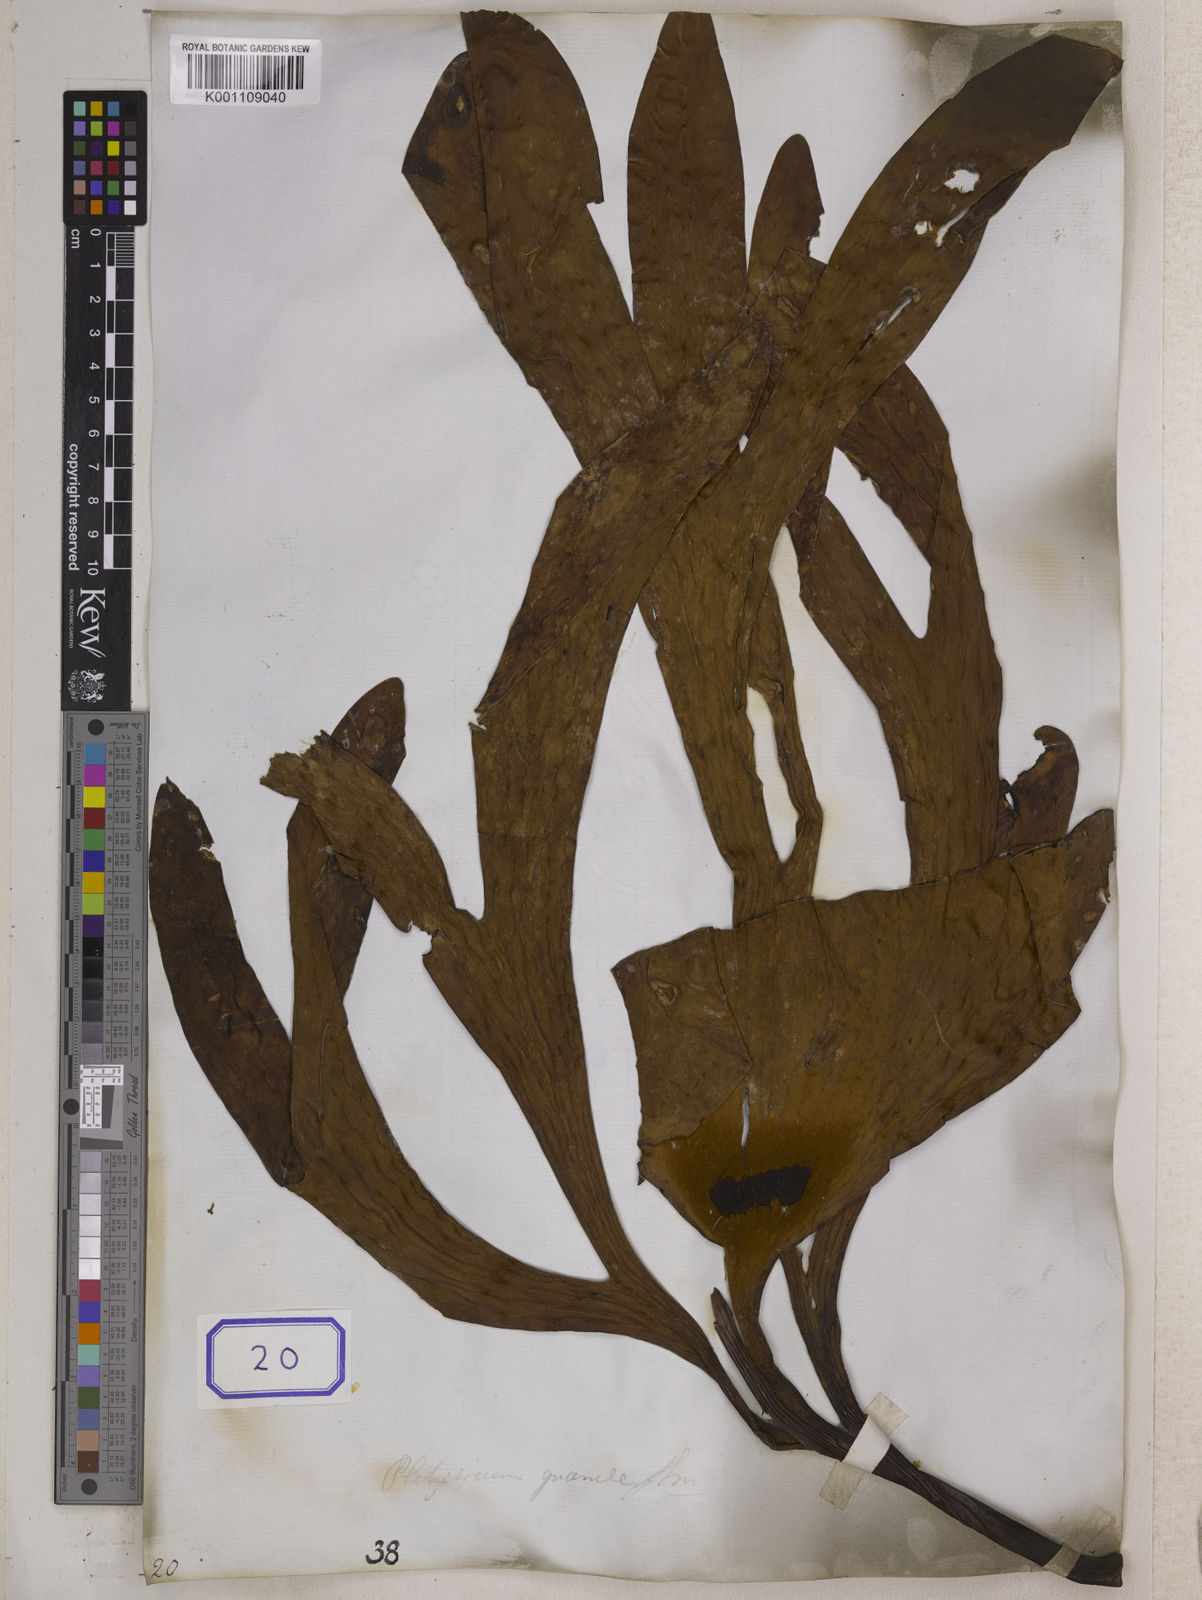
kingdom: Plantae
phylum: Tracheophyta
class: Polypodiopsida
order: Polypodiales
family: Polypodiaceae
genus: Platycerium
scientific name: Platycerium coronarium
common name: Elkhorn fern
